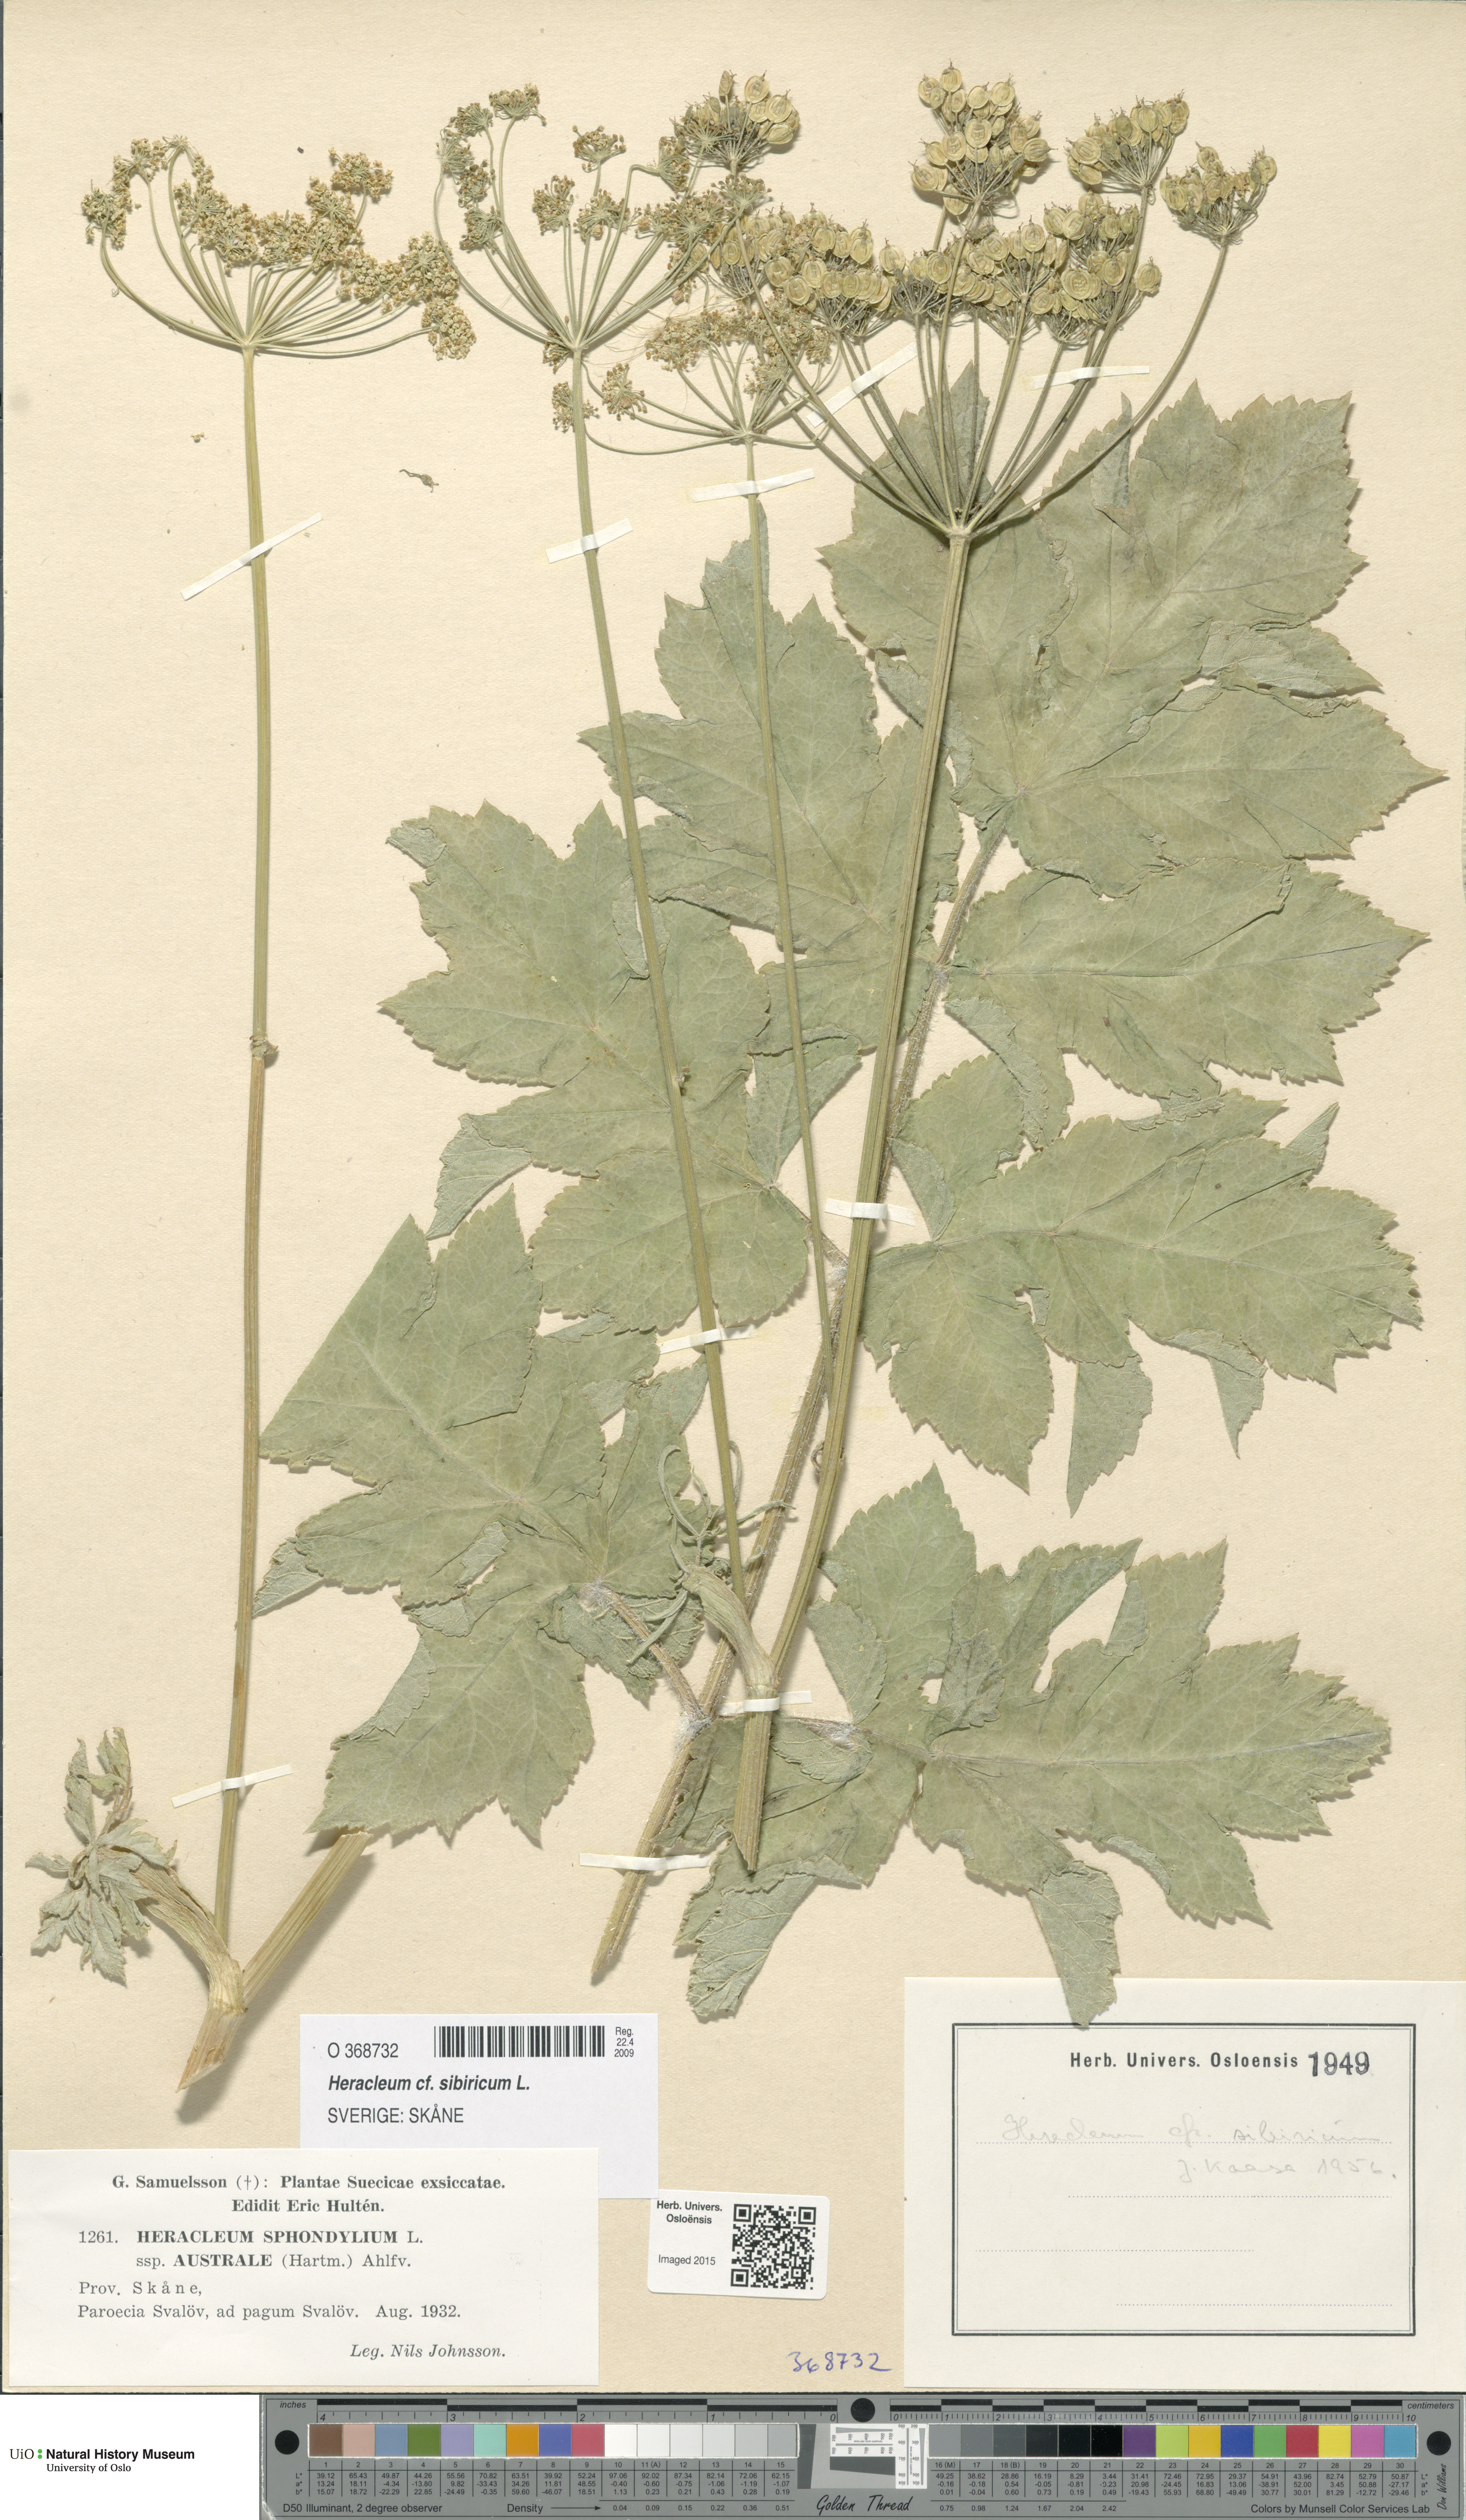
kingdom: Plantae
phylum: Tracheophyta
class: Magnoliopsida
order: Apiales
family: Apiaceae
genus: Heracleum
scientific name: Heracleum sphondylium
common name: Hogweed
